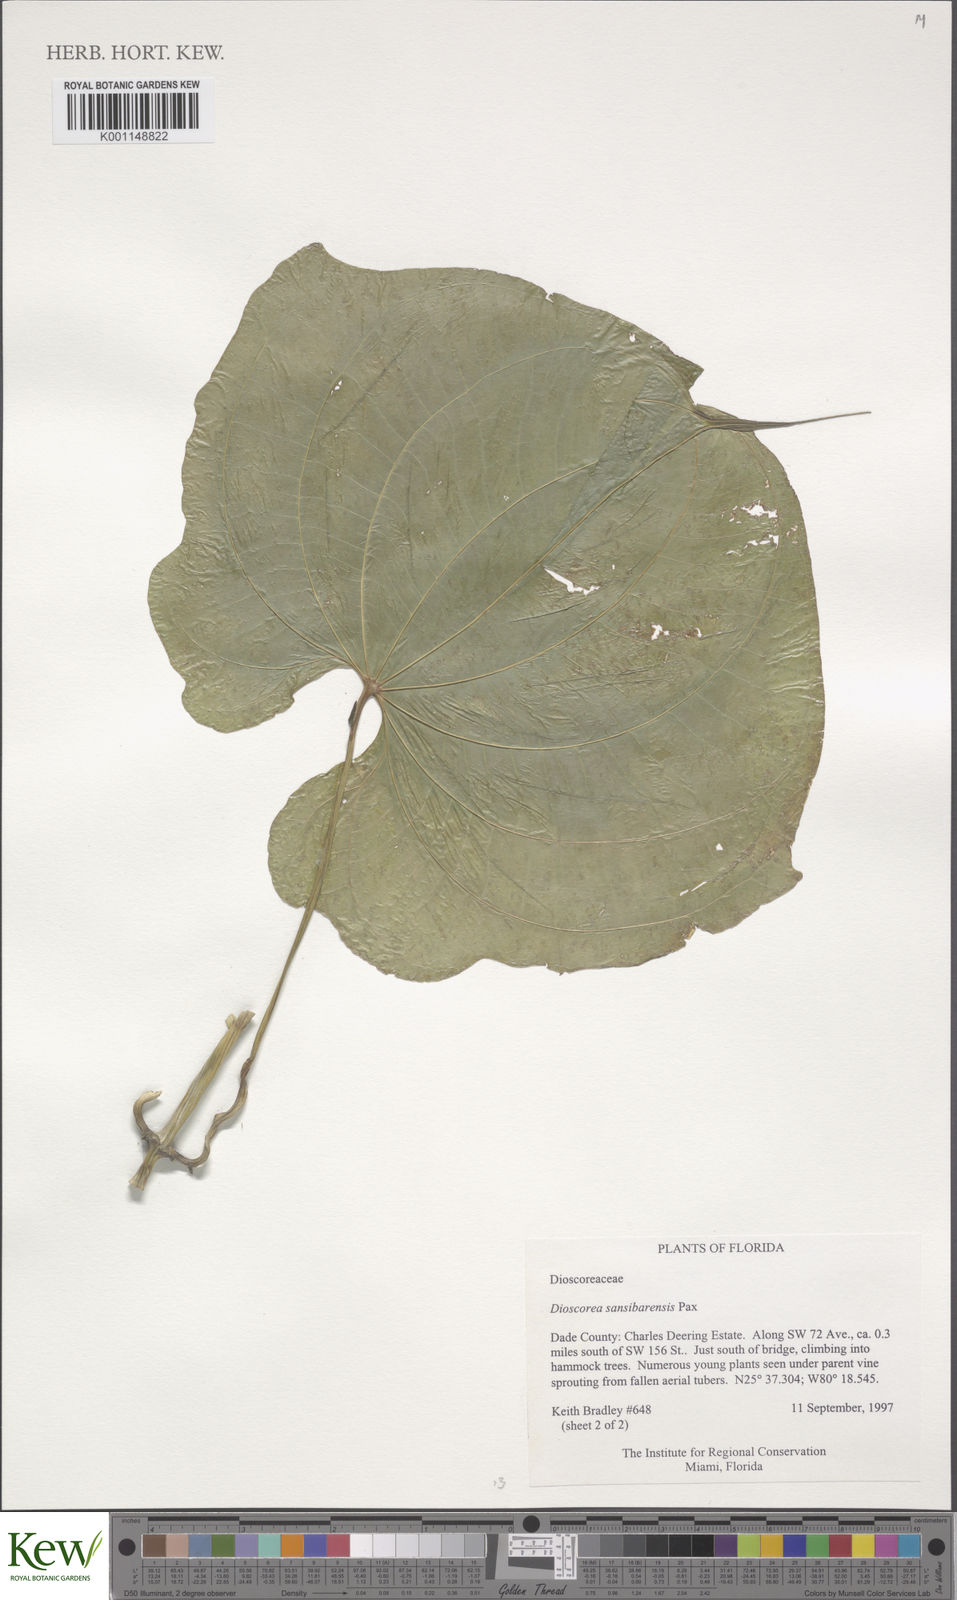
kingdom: Plantae
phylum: Tracheophyta
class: Liliopsida
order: Dioscoreales
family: Dioscoreaceae
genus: Dioscorea
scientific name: Dioscorea sansibarensis
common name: Zanzibar yam
